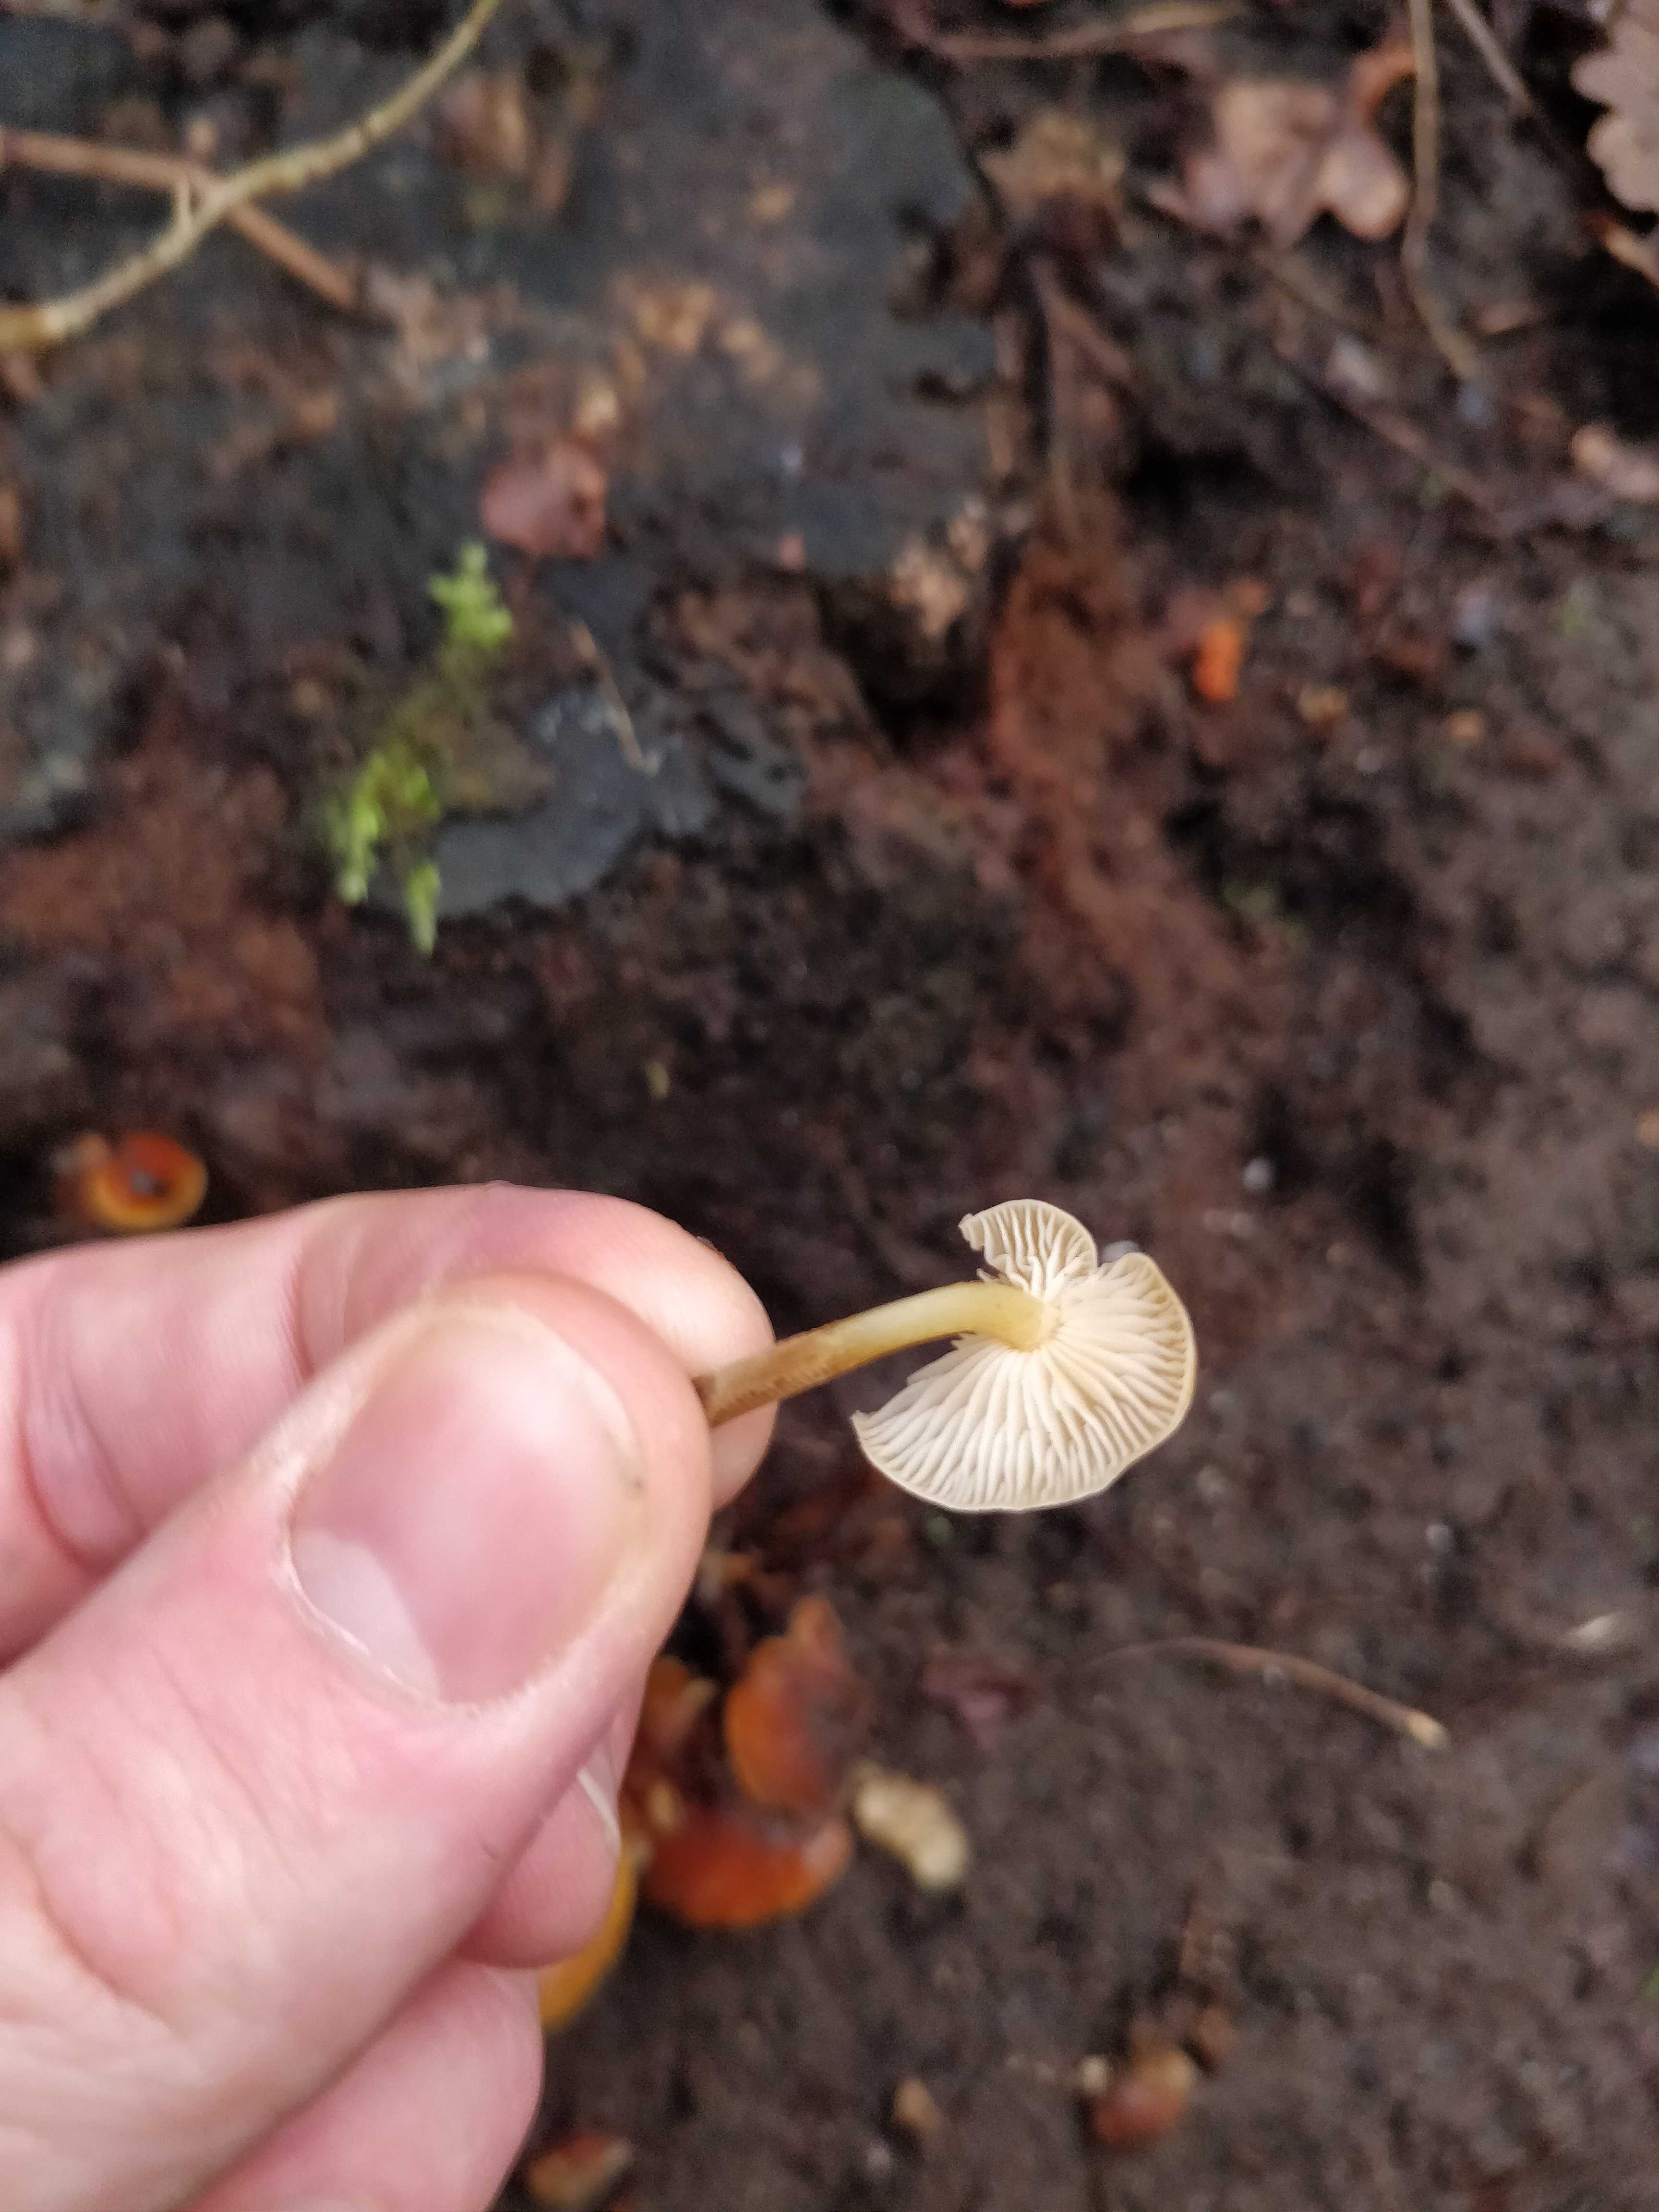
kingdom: Fungi
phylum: Basidiomycota
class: Agaricomycetes
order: Agaricales
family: Physalacriaceae
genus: Flammulina
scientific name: Flammulina
